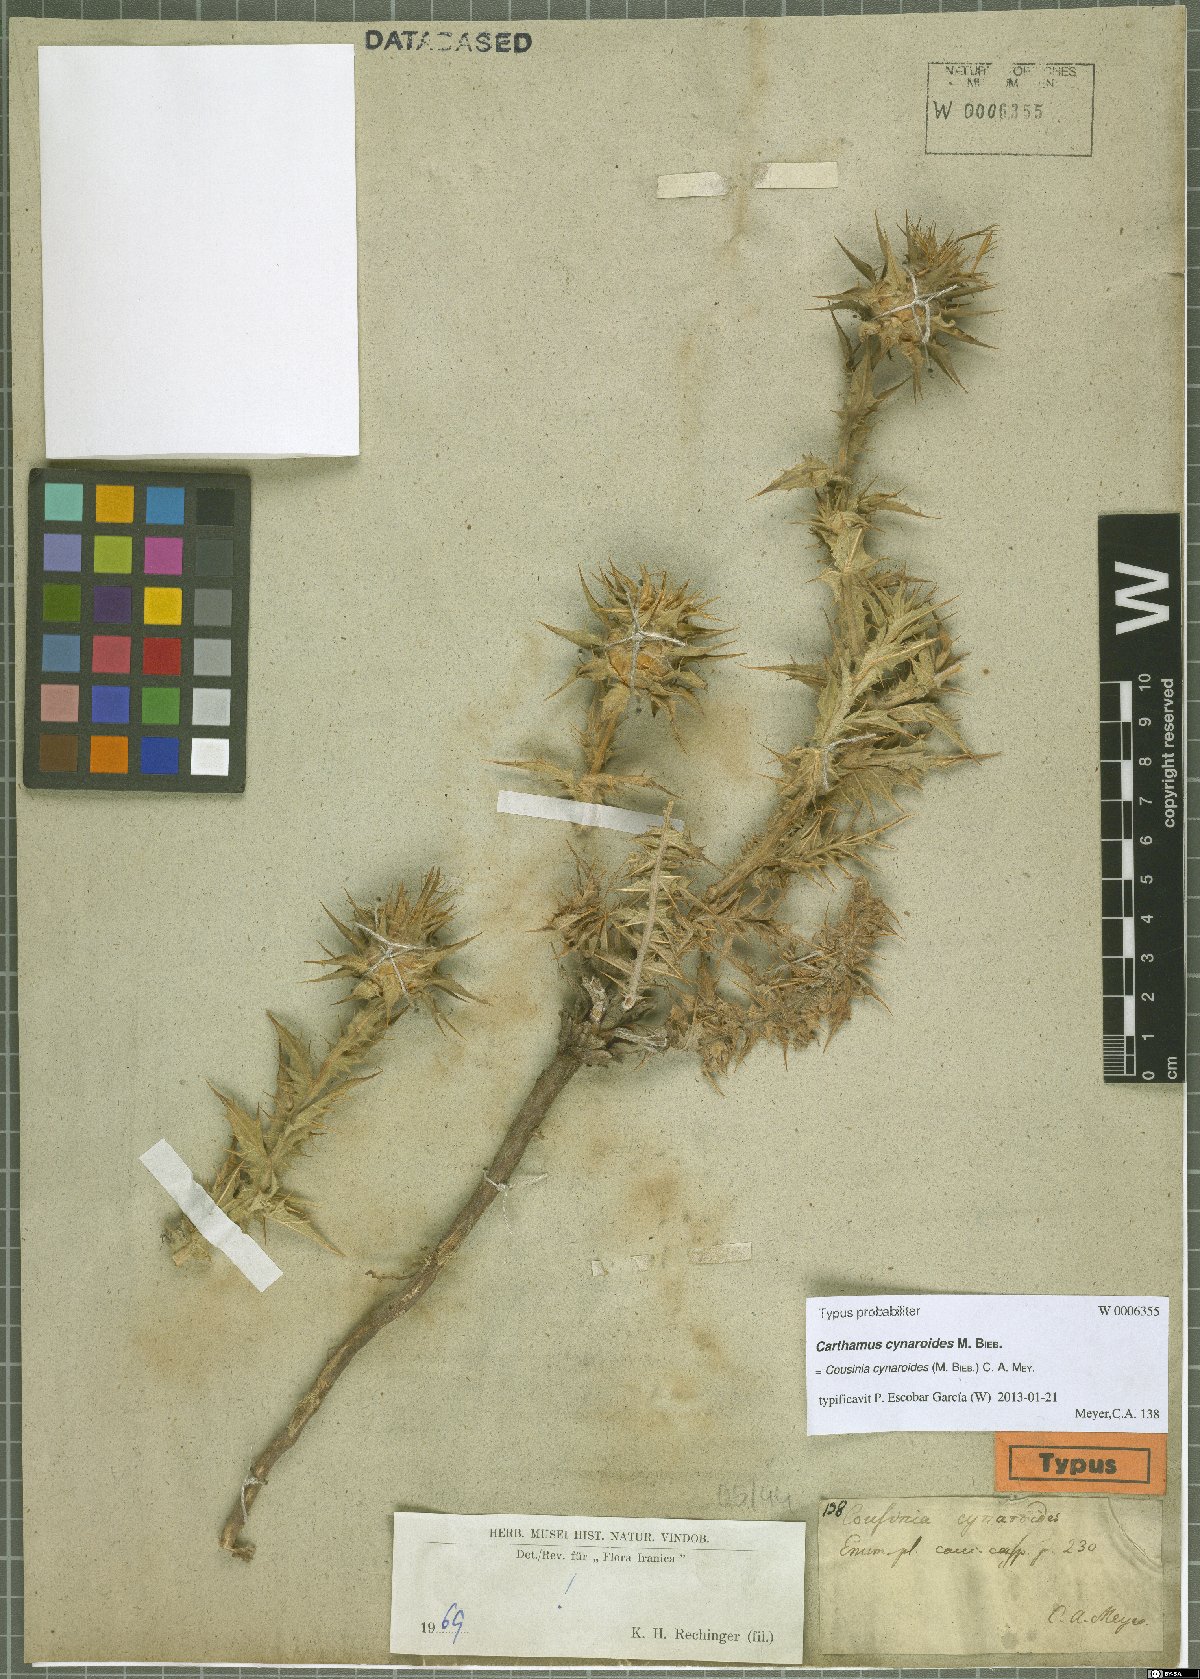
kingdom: Plantae
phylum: Tracheophyta
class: Magnoliopsida
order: Asterales
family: Asteraceae
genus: Cousinia
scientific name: Cousinia cynaroides
